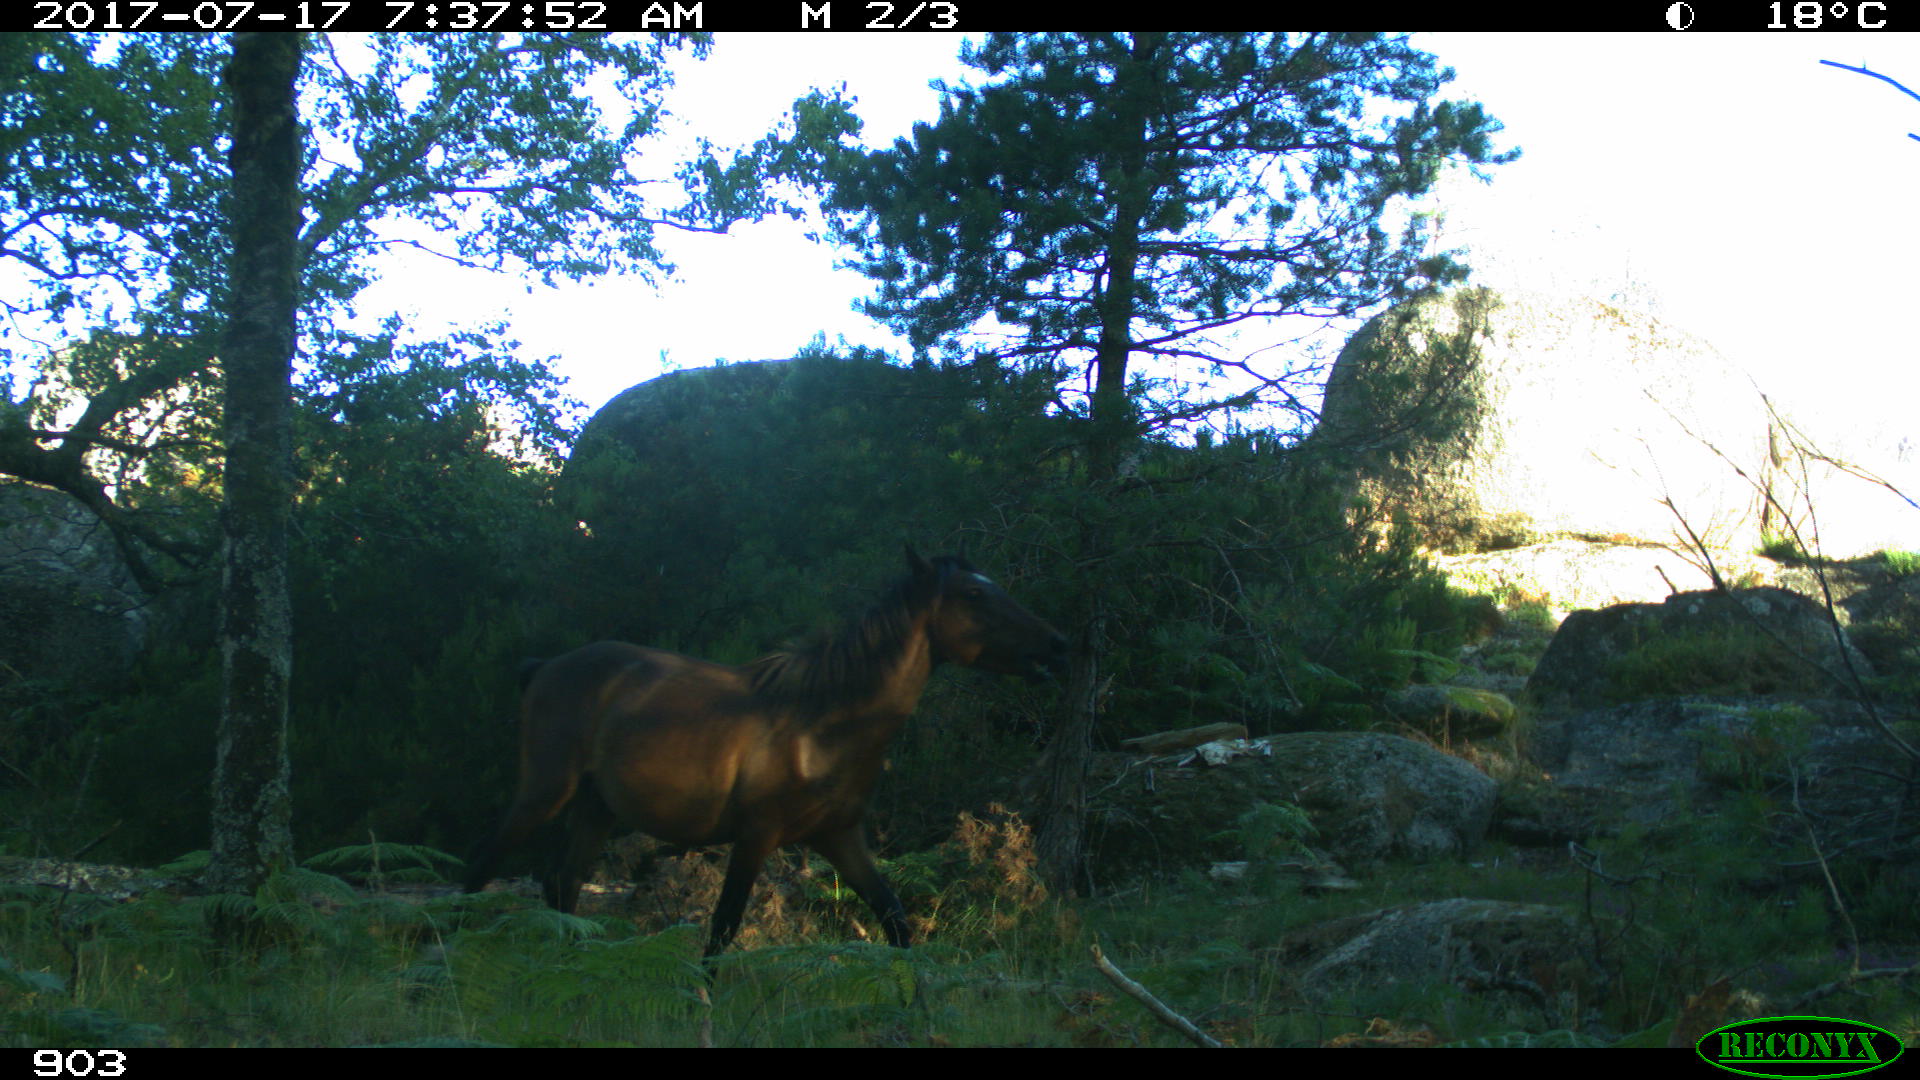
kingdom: Animalia
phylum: Chordata
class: Mammalia
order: Perissodactyla
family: Equidae
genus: Equus
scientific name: Equus caballus
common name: Horse
